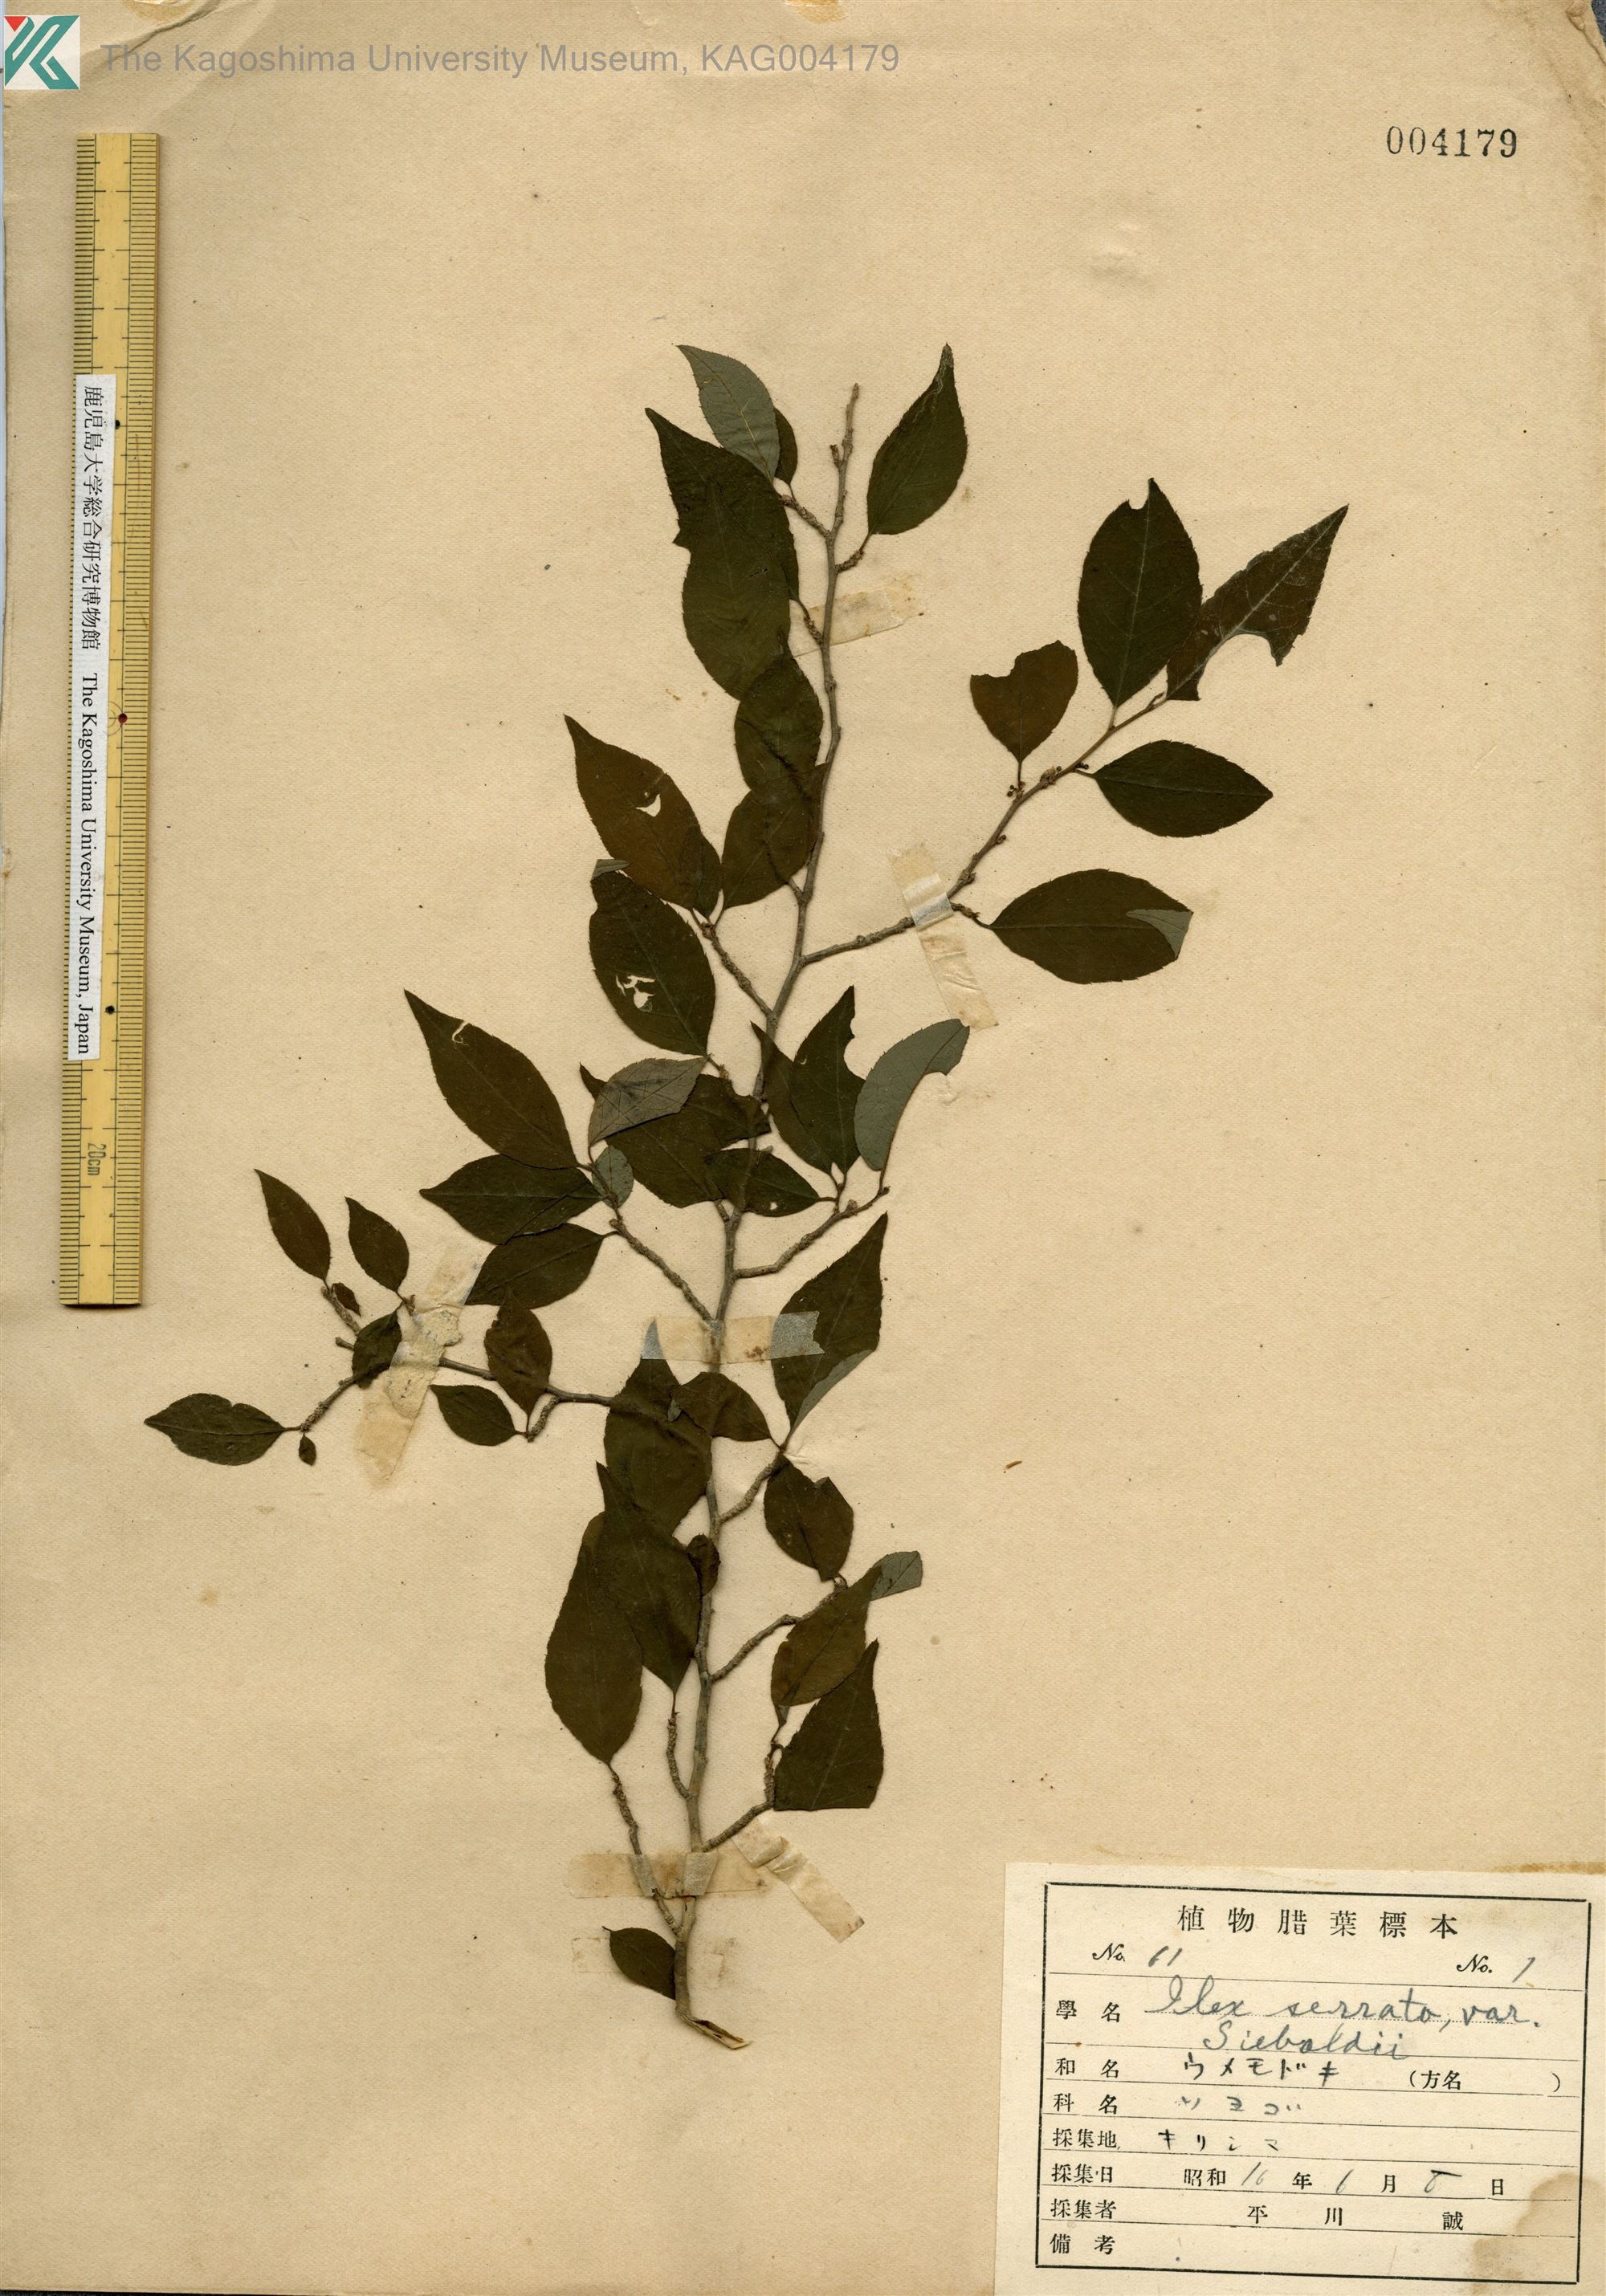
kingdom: Plantae
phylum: Tracheophyta
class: Magnoliopsida
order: Aquifoliales
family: Aquifoliaceae
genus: Ilex
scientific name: Ilex serrata
